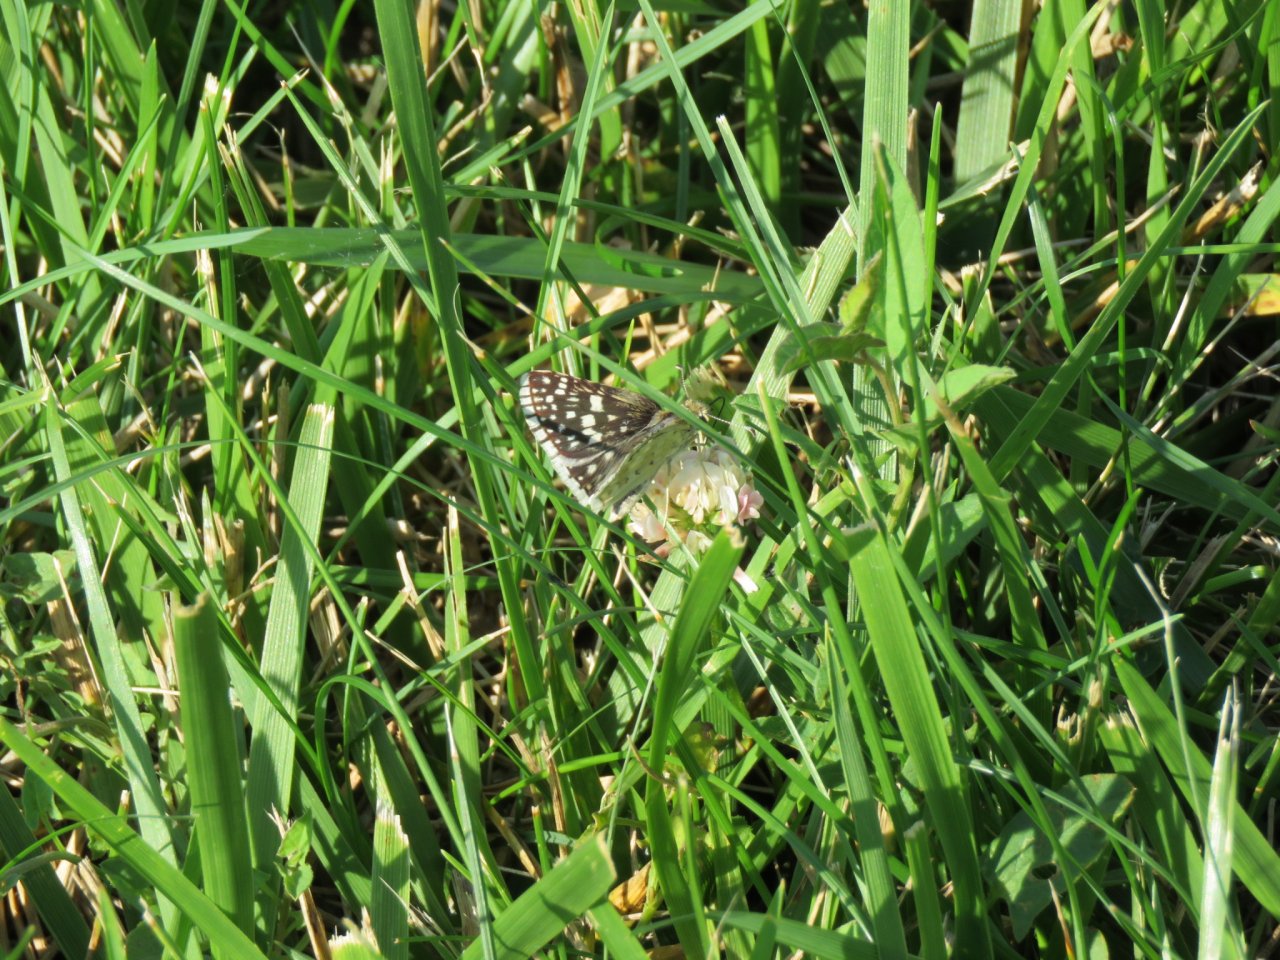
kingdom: Animalia
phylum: Arthropoda
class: Insecta
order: Lepidoptera
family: Hesperiidae
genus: Pyrgus
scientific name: Pyrgus communis
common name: Common Checkered-Skipper
